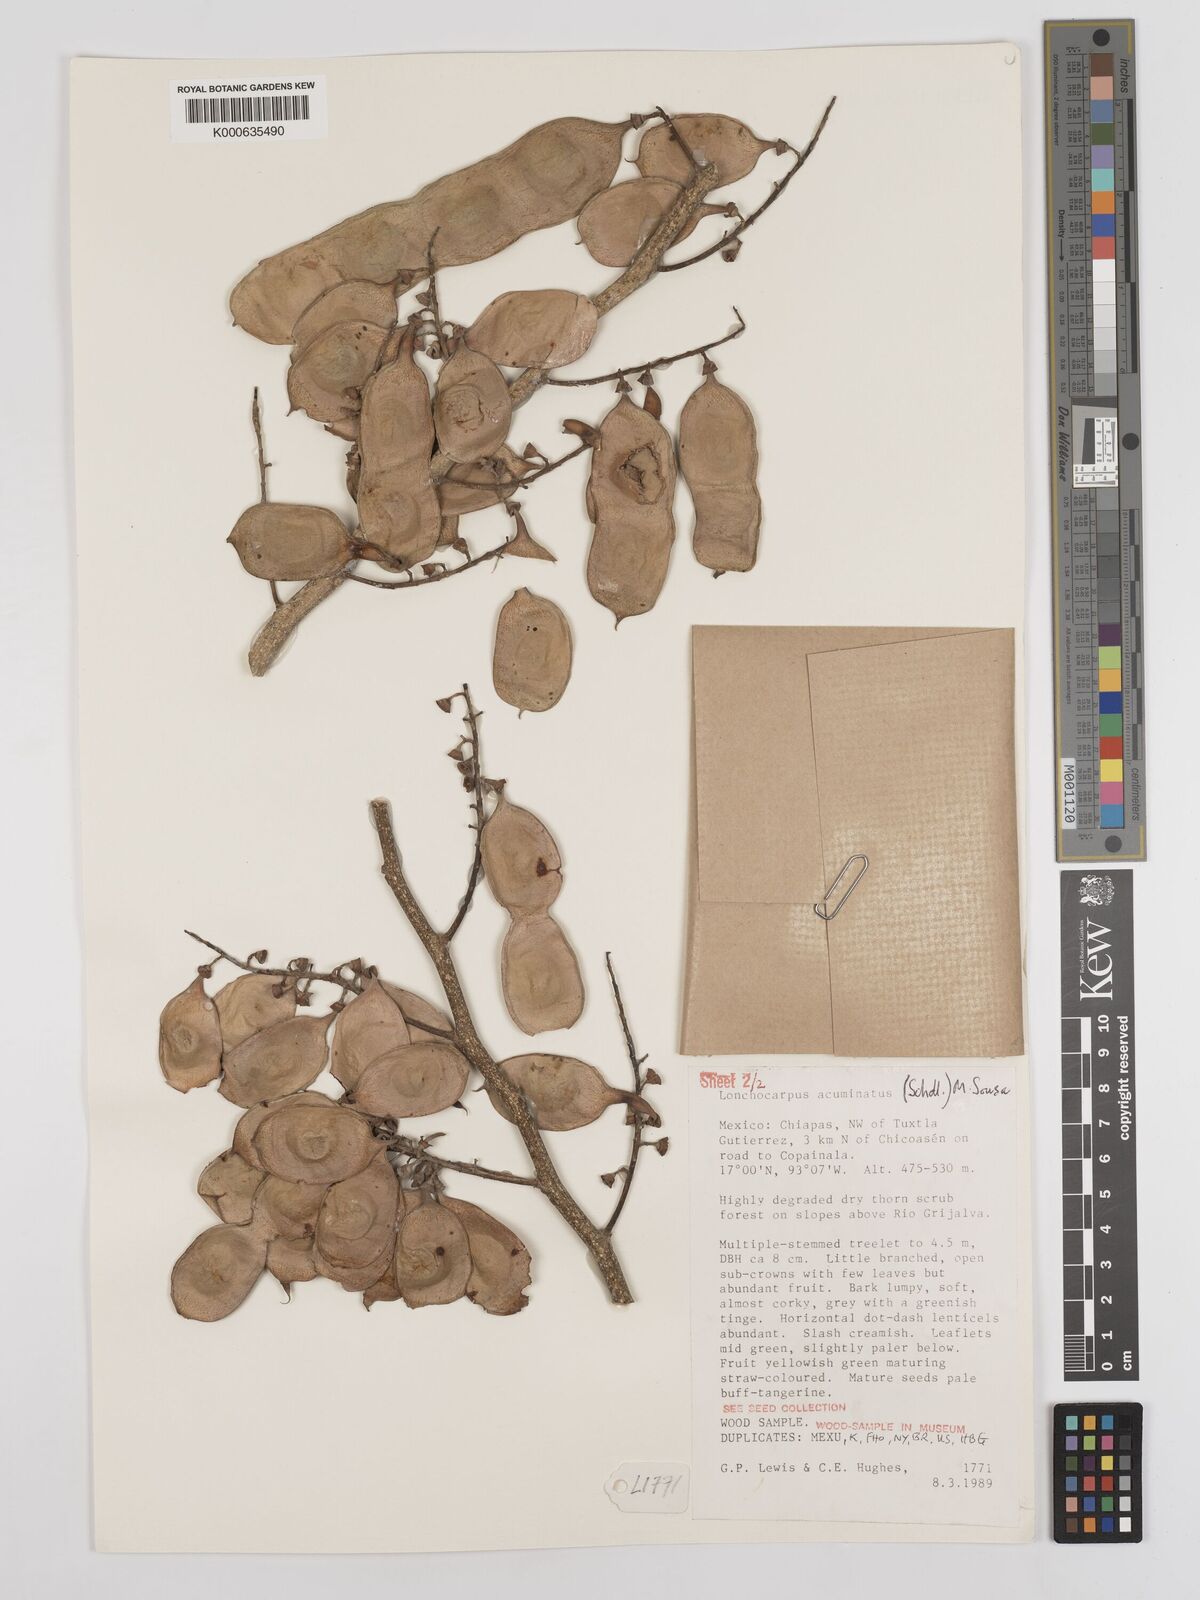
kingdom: Plantae
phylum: Tracheophyta
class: Magnoliopsida
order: Fabales
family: Fabaceae
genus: Lonchocarpus
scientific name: Lonchocarpus acuminatus
